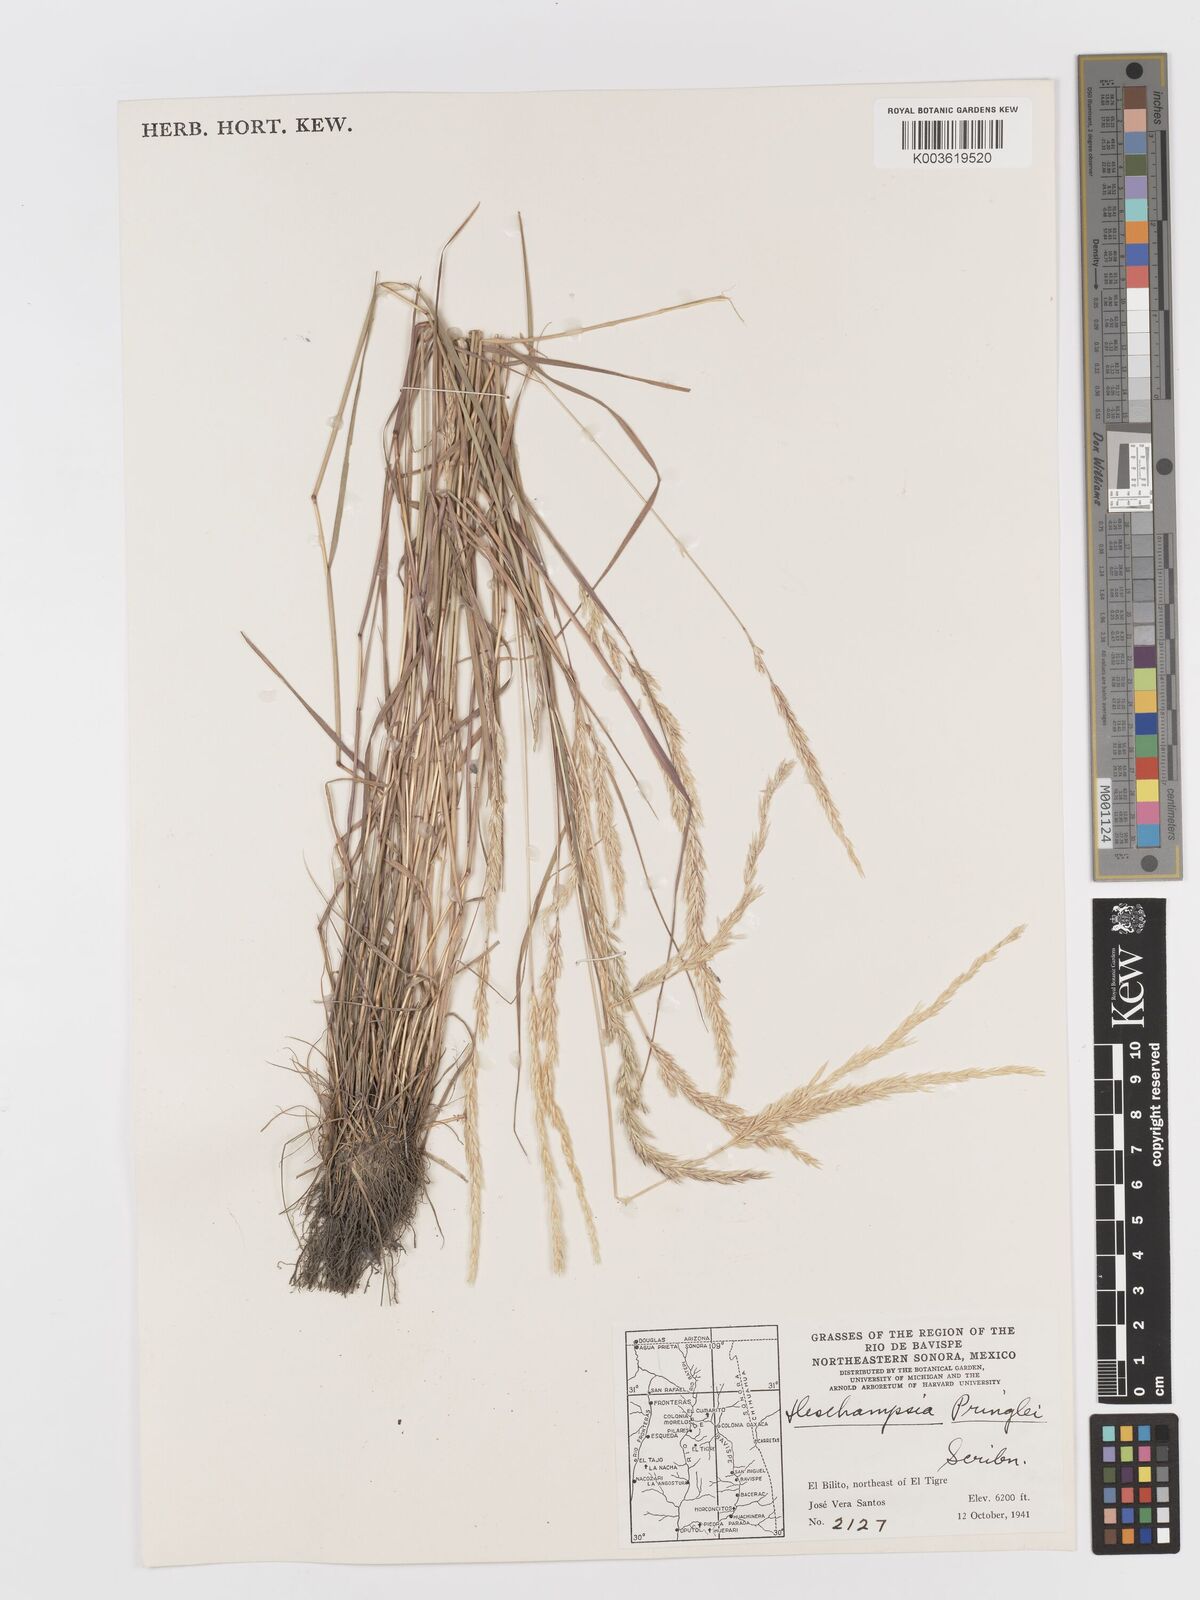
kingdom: Plantae
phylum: Tracheophyta
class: Liliopsida
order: Poales
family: Poaceae
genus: Peyritschia
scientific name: Peyritschia pringlei
